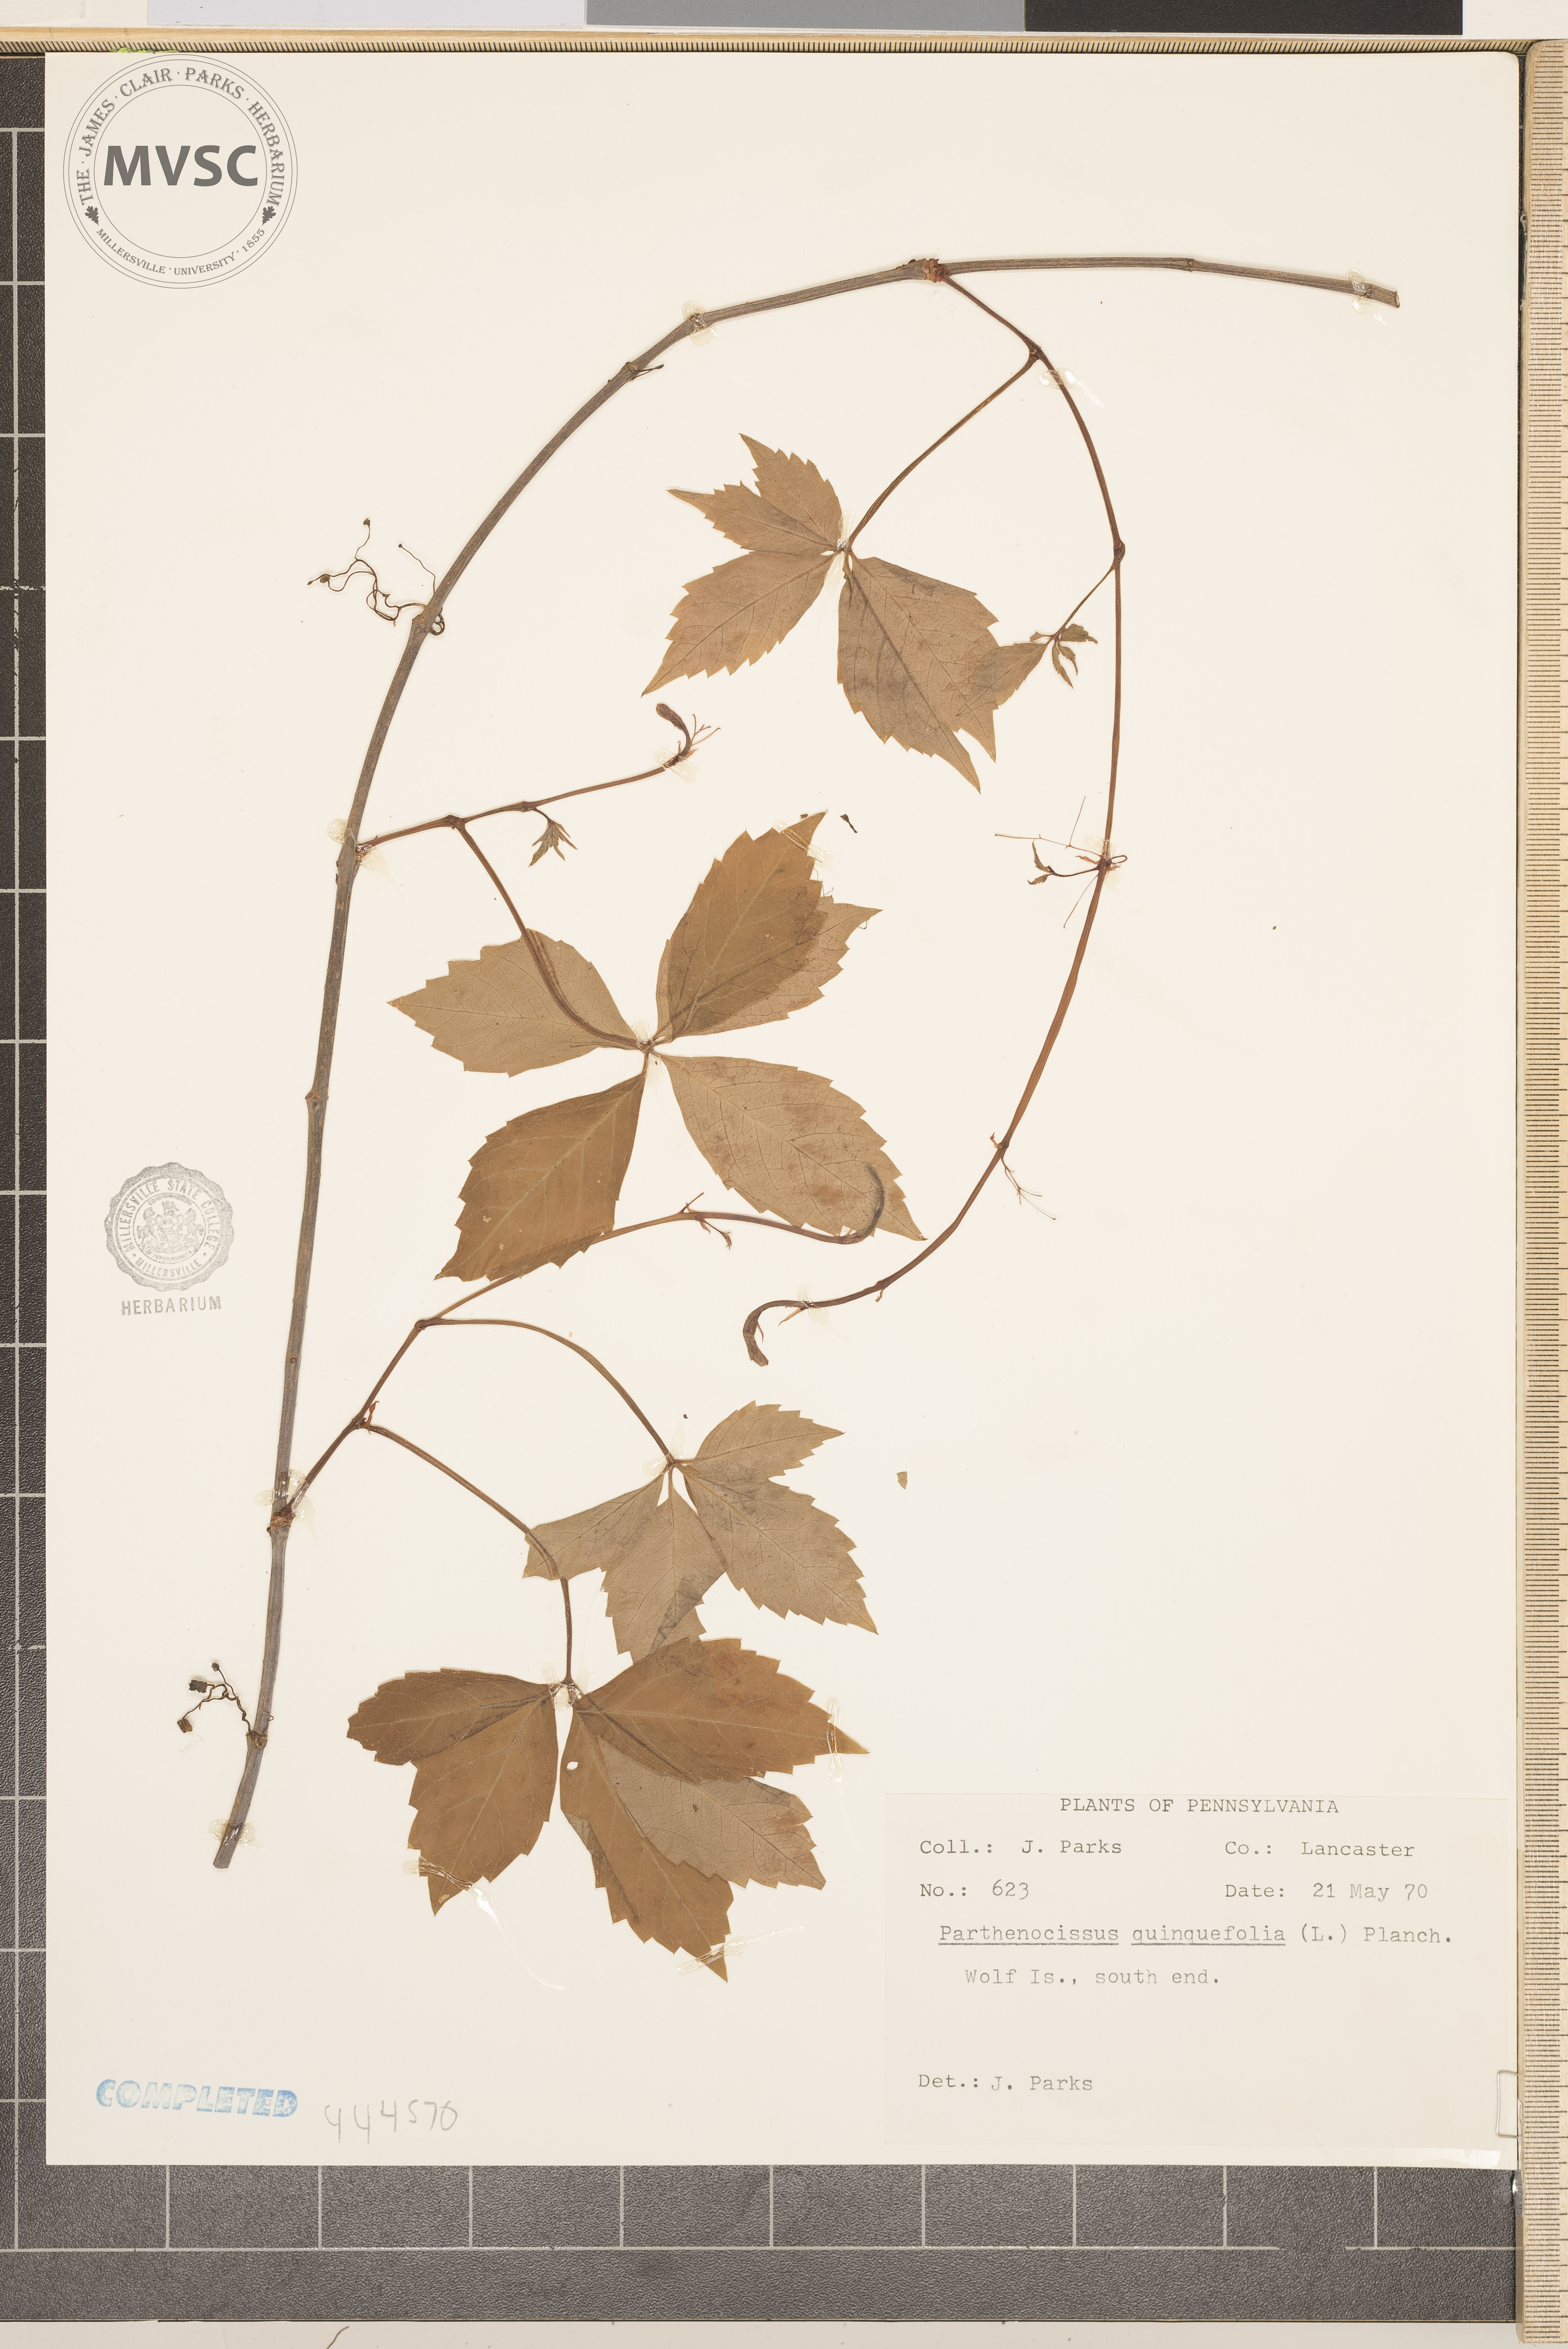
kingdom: Plantae
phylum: Tracheophyta
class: Magnoliopsida
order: Vitales
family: Vitaceae
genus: Parthenocissus
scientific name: Parthenocissus quinquefolia
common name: Virginia-creeper
